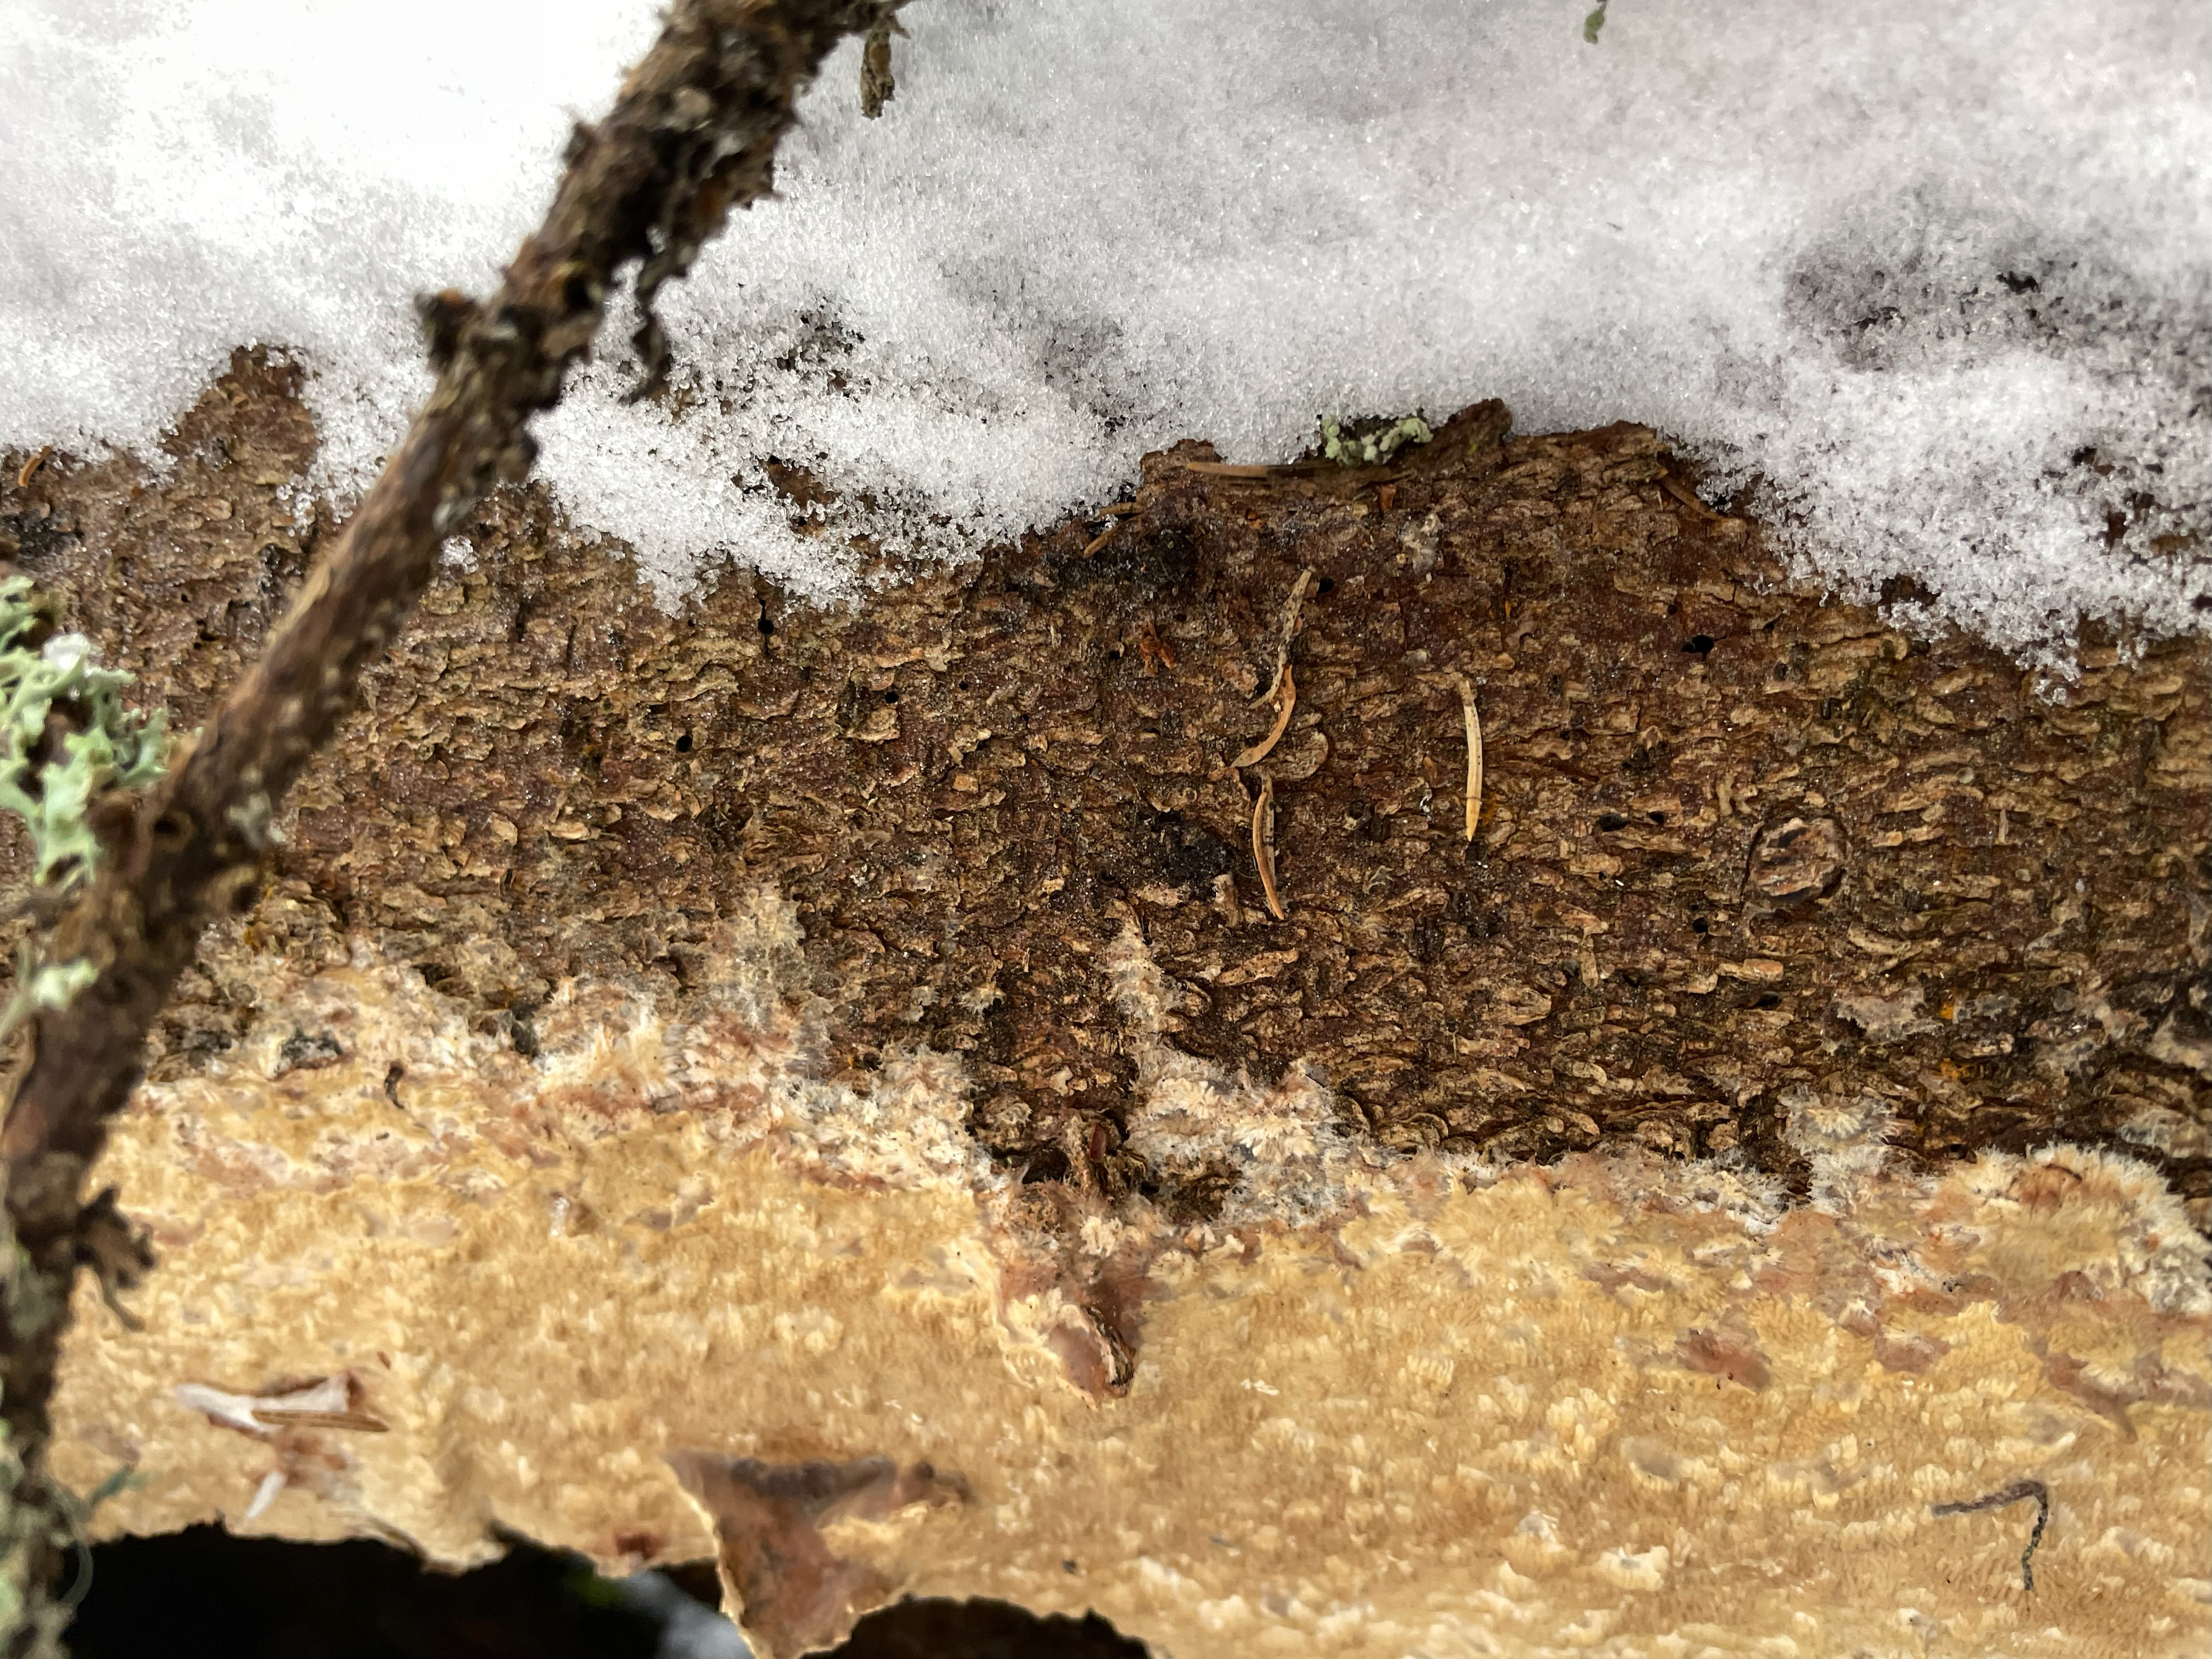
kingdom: Fungi
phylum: Basidiomycota
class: Agaricomycetes
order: Polyporales
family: Fomitopsidaceae
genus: Antrodia
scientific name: Antrodia sinuosa
